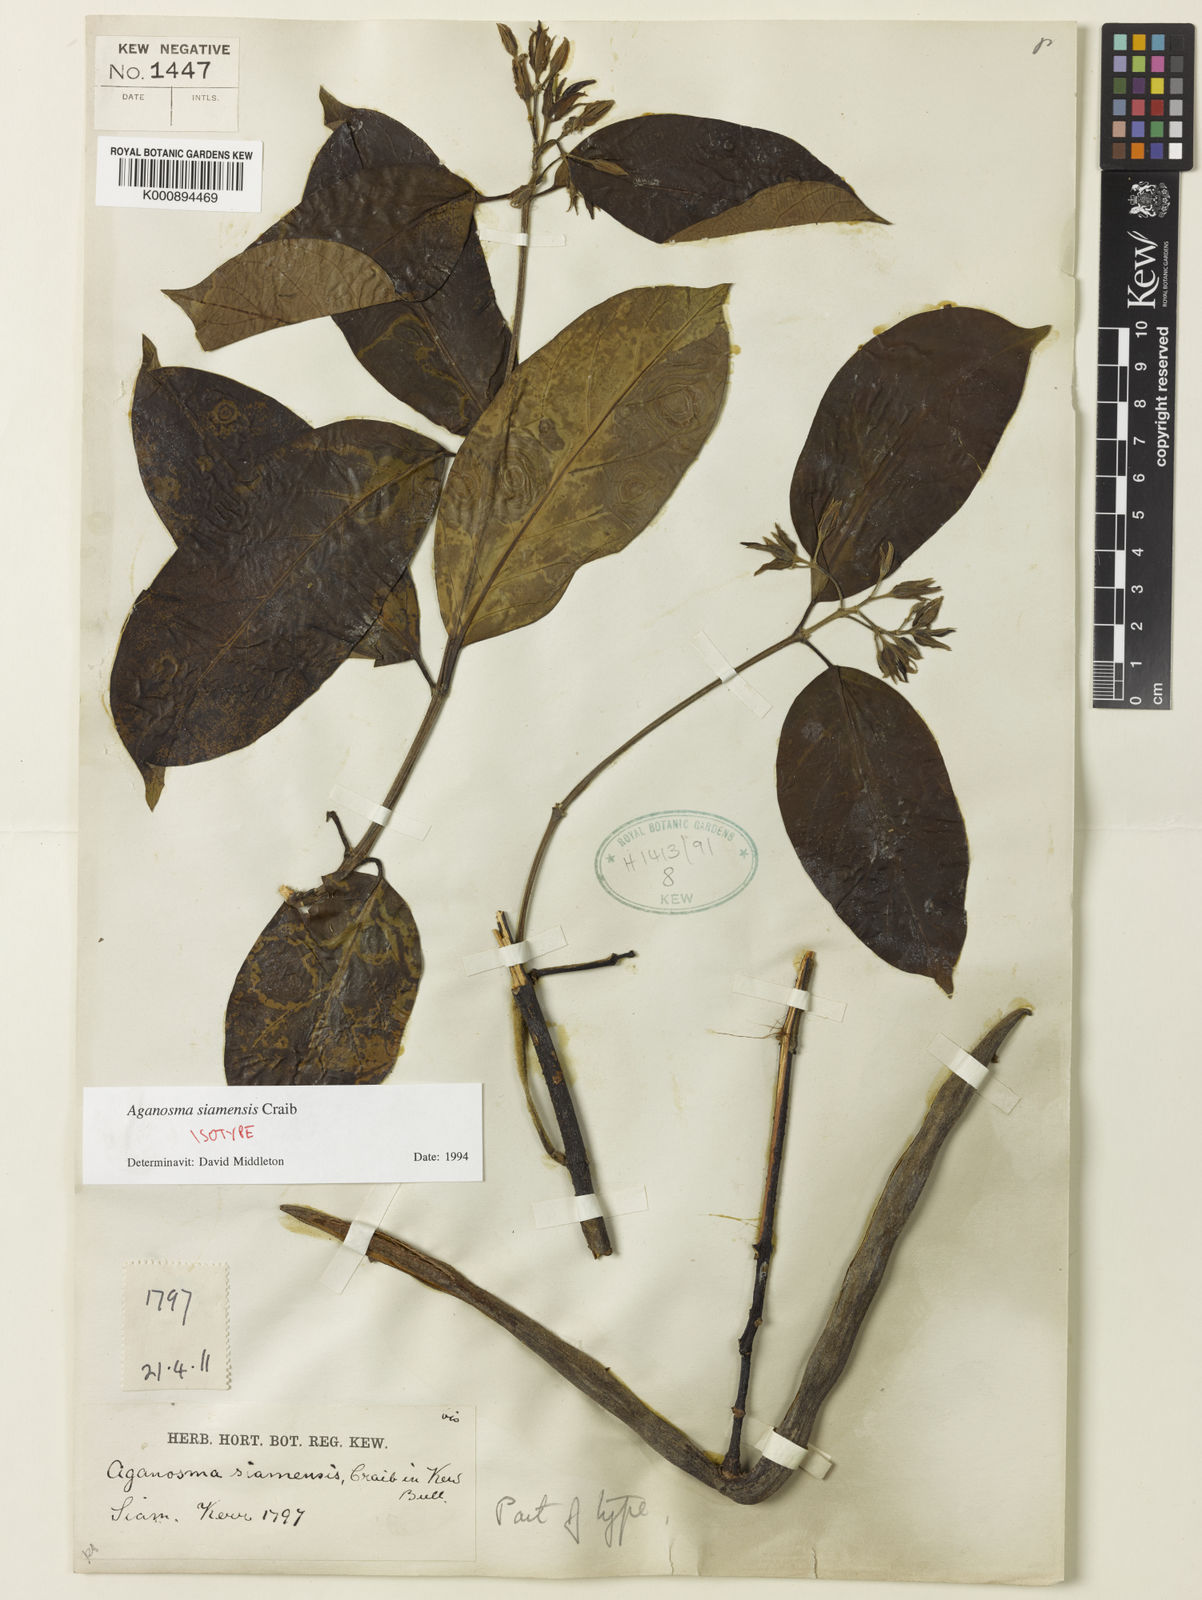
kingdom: Plantae
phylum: Tracheophyta
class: Magnoliopsida
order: Gentianales
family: Apocynaceae
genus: Aganosma
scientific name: Aganosma siamensis
